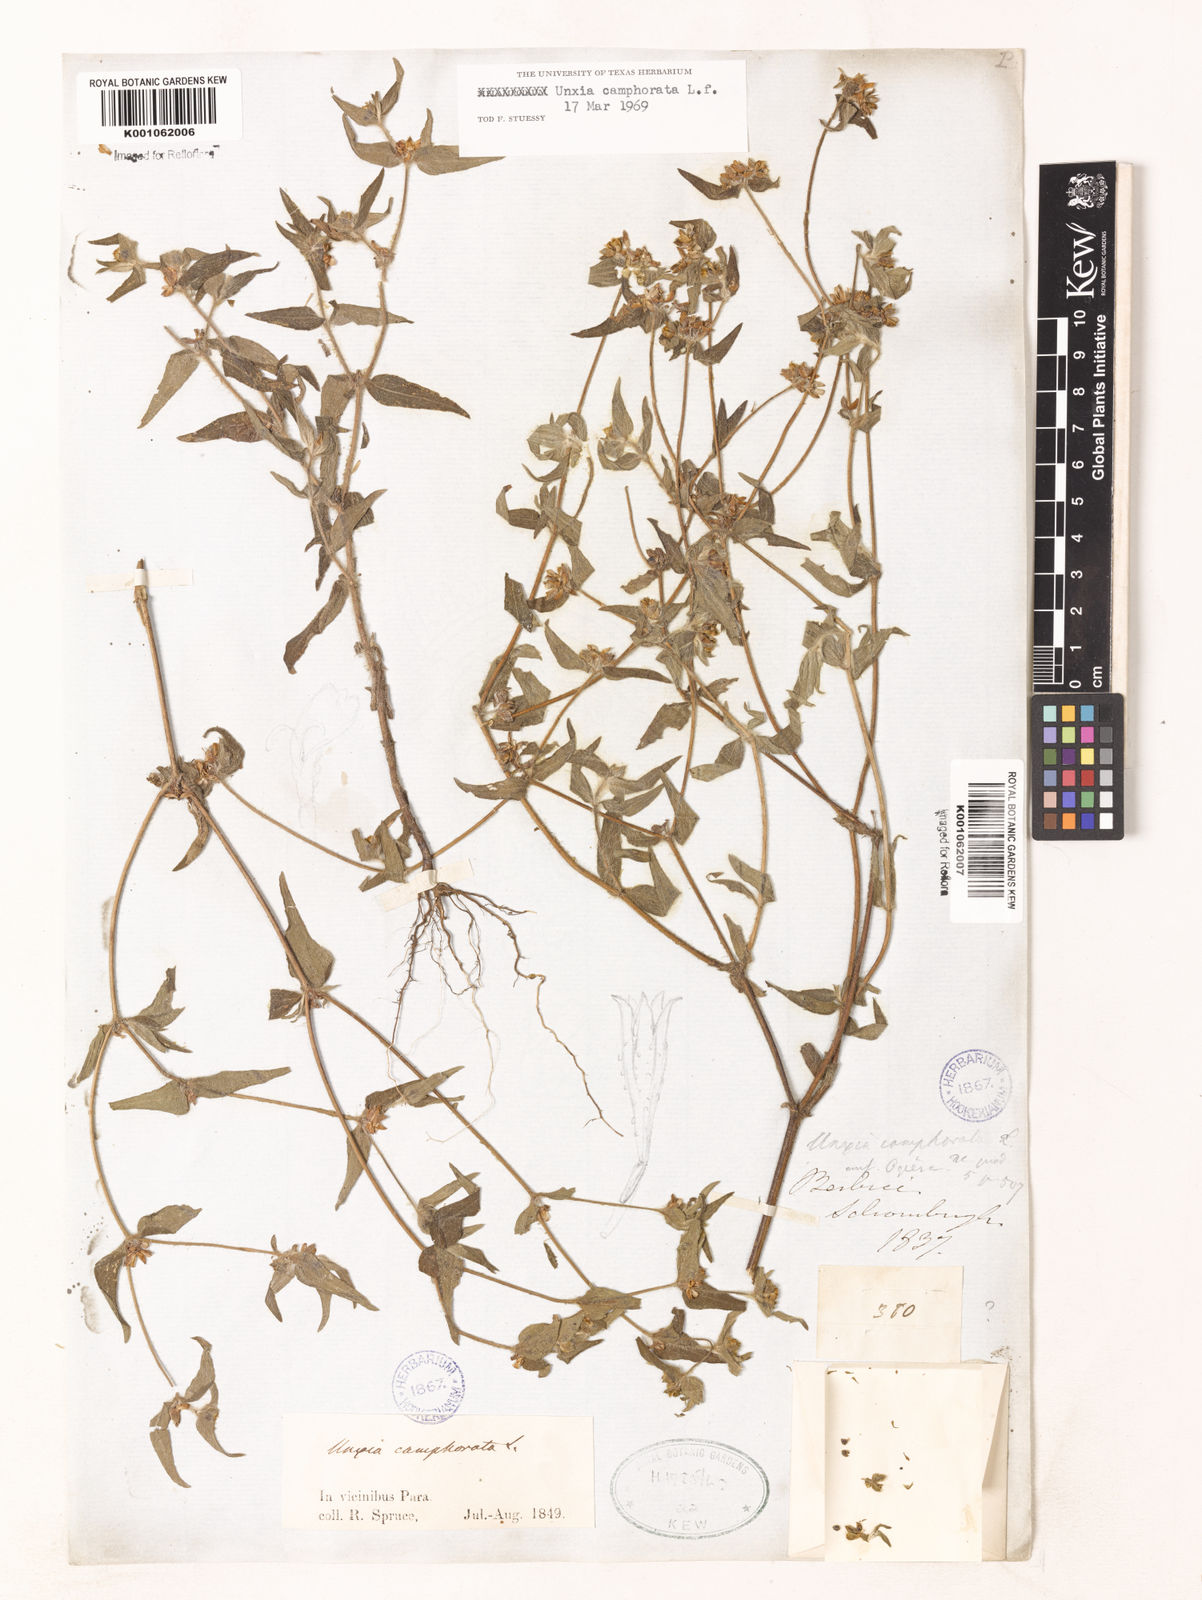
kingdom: Plantae
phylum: Tracheophyta
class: Magnoliopsida
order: Asterales
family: Asteraceae
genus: Unxia
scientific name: Unxia camphorata
